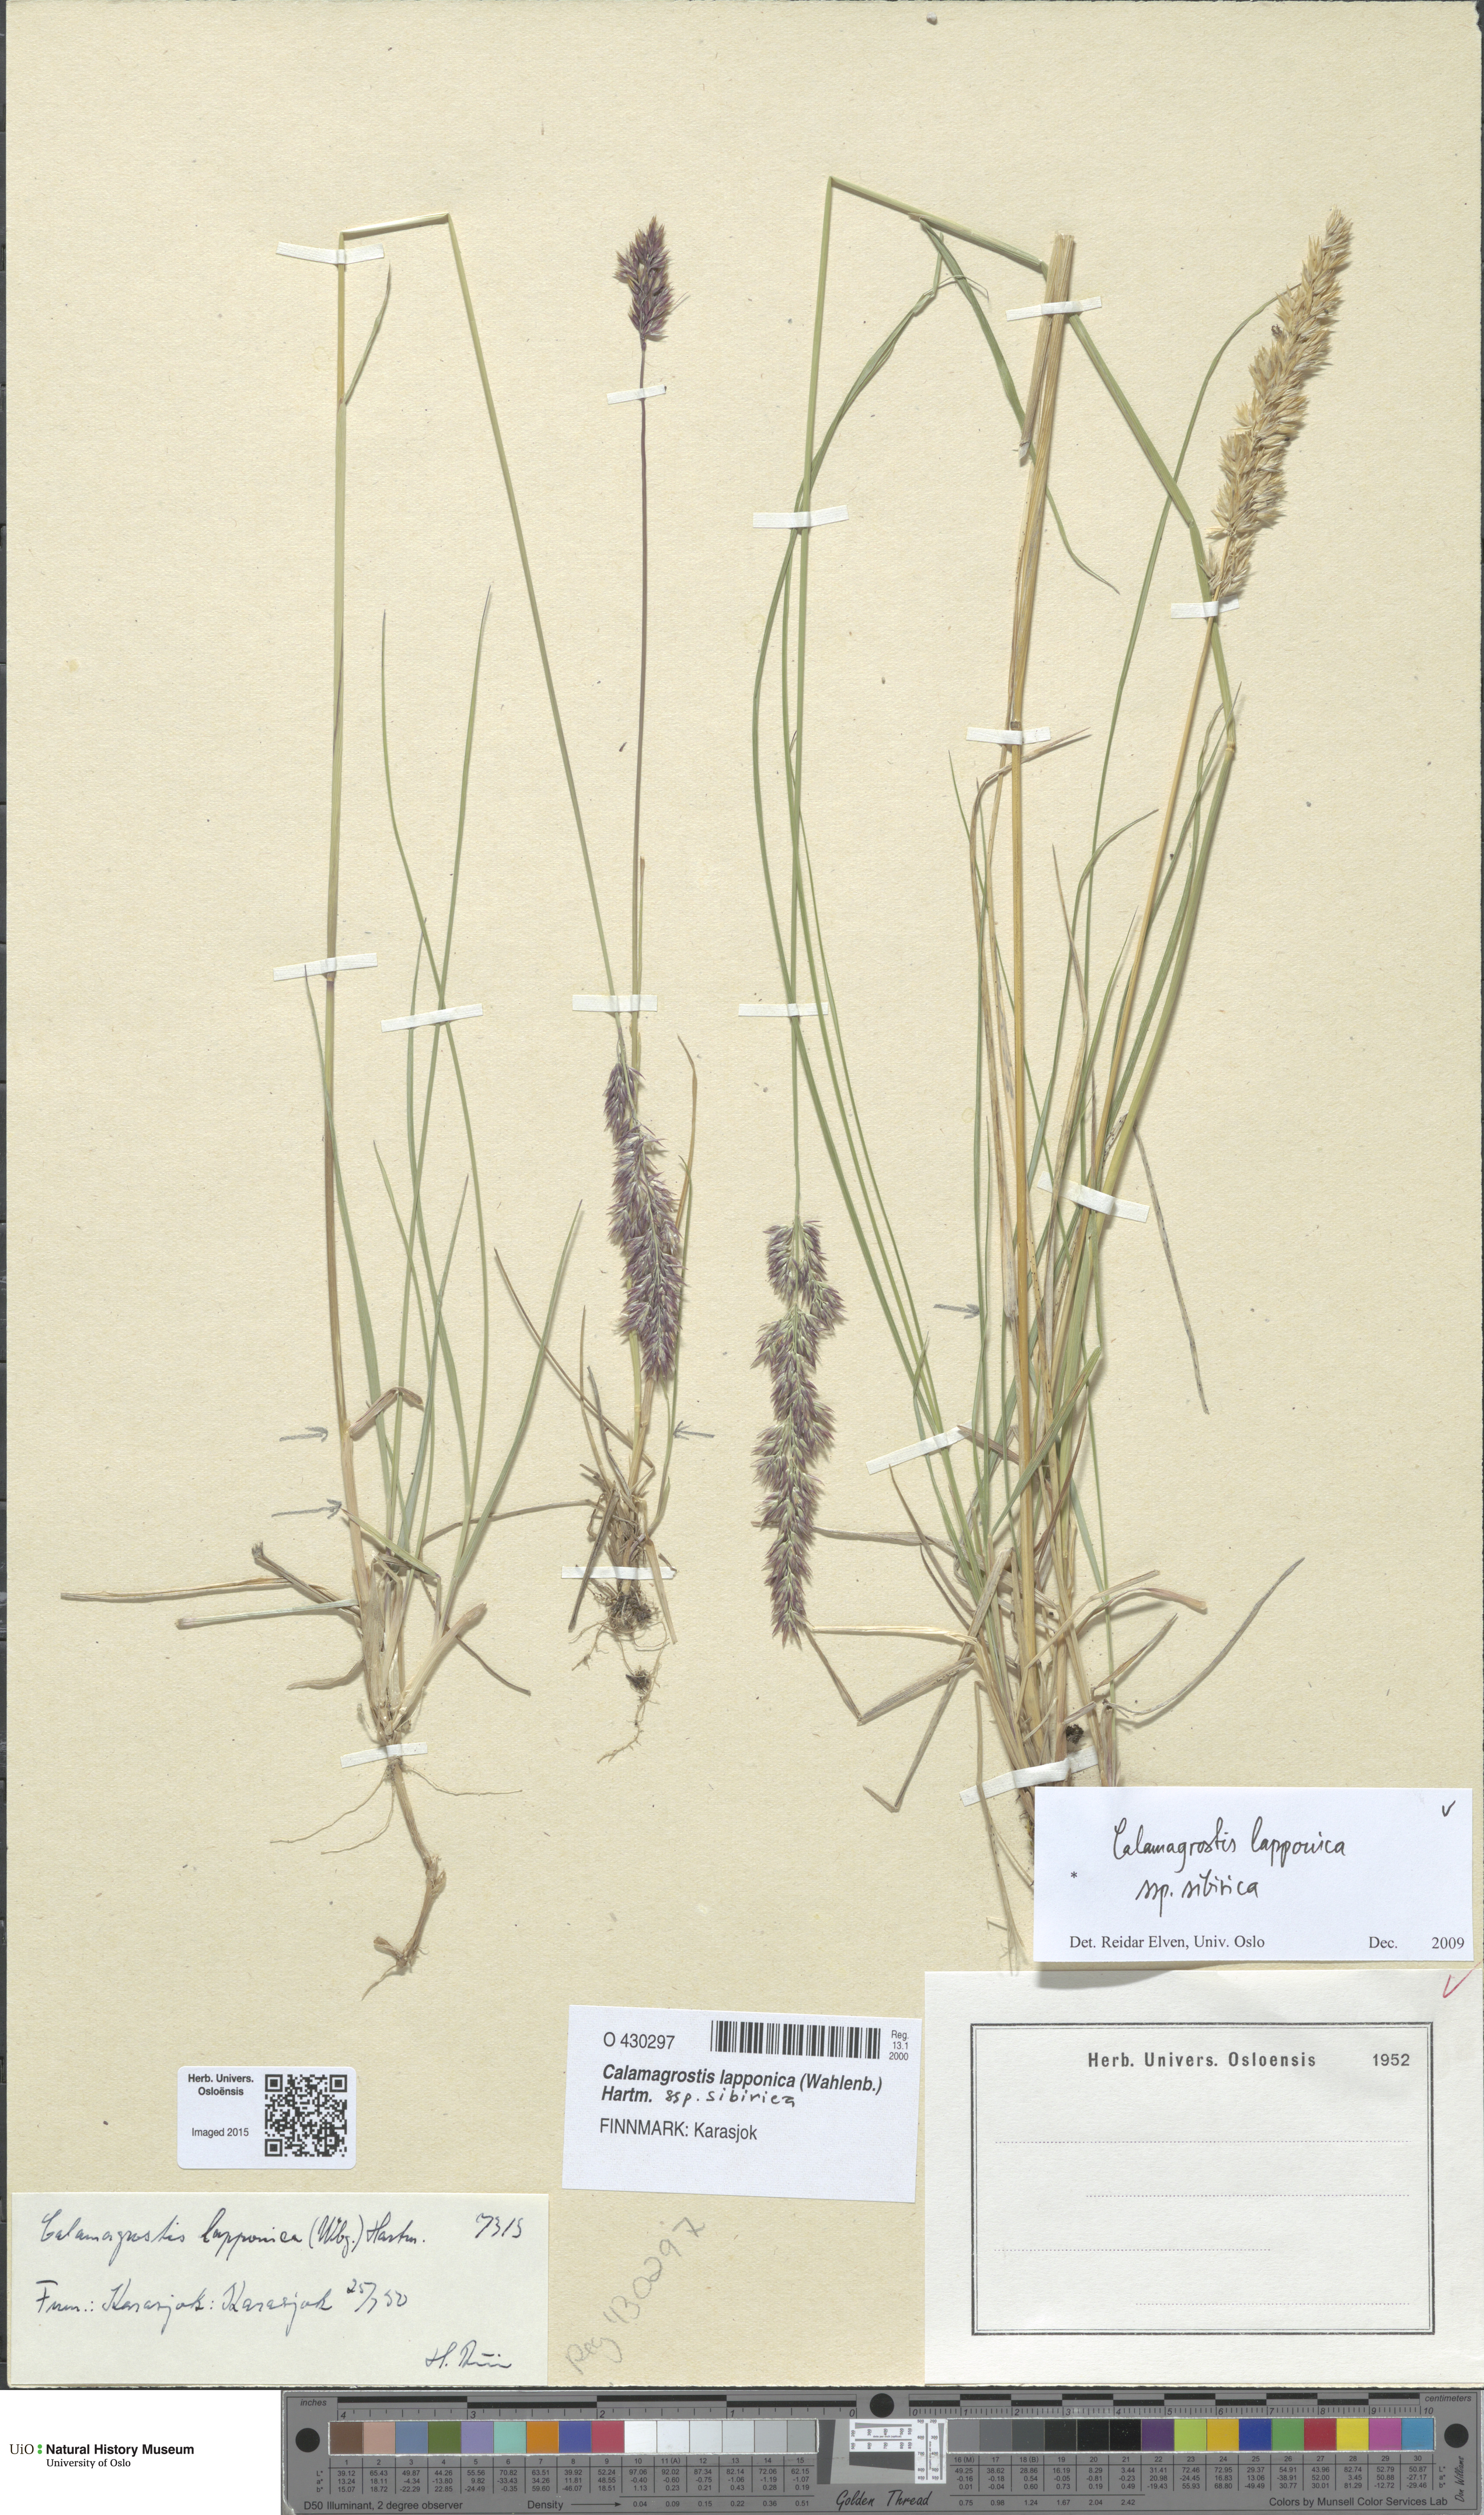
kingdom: Plantae
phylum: Tracheophyta
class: Liliopsida
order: Poales
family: Poaceae
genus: Calamagrostis
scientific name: Calamagrostis lapponica
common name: Lapland reedgrass
